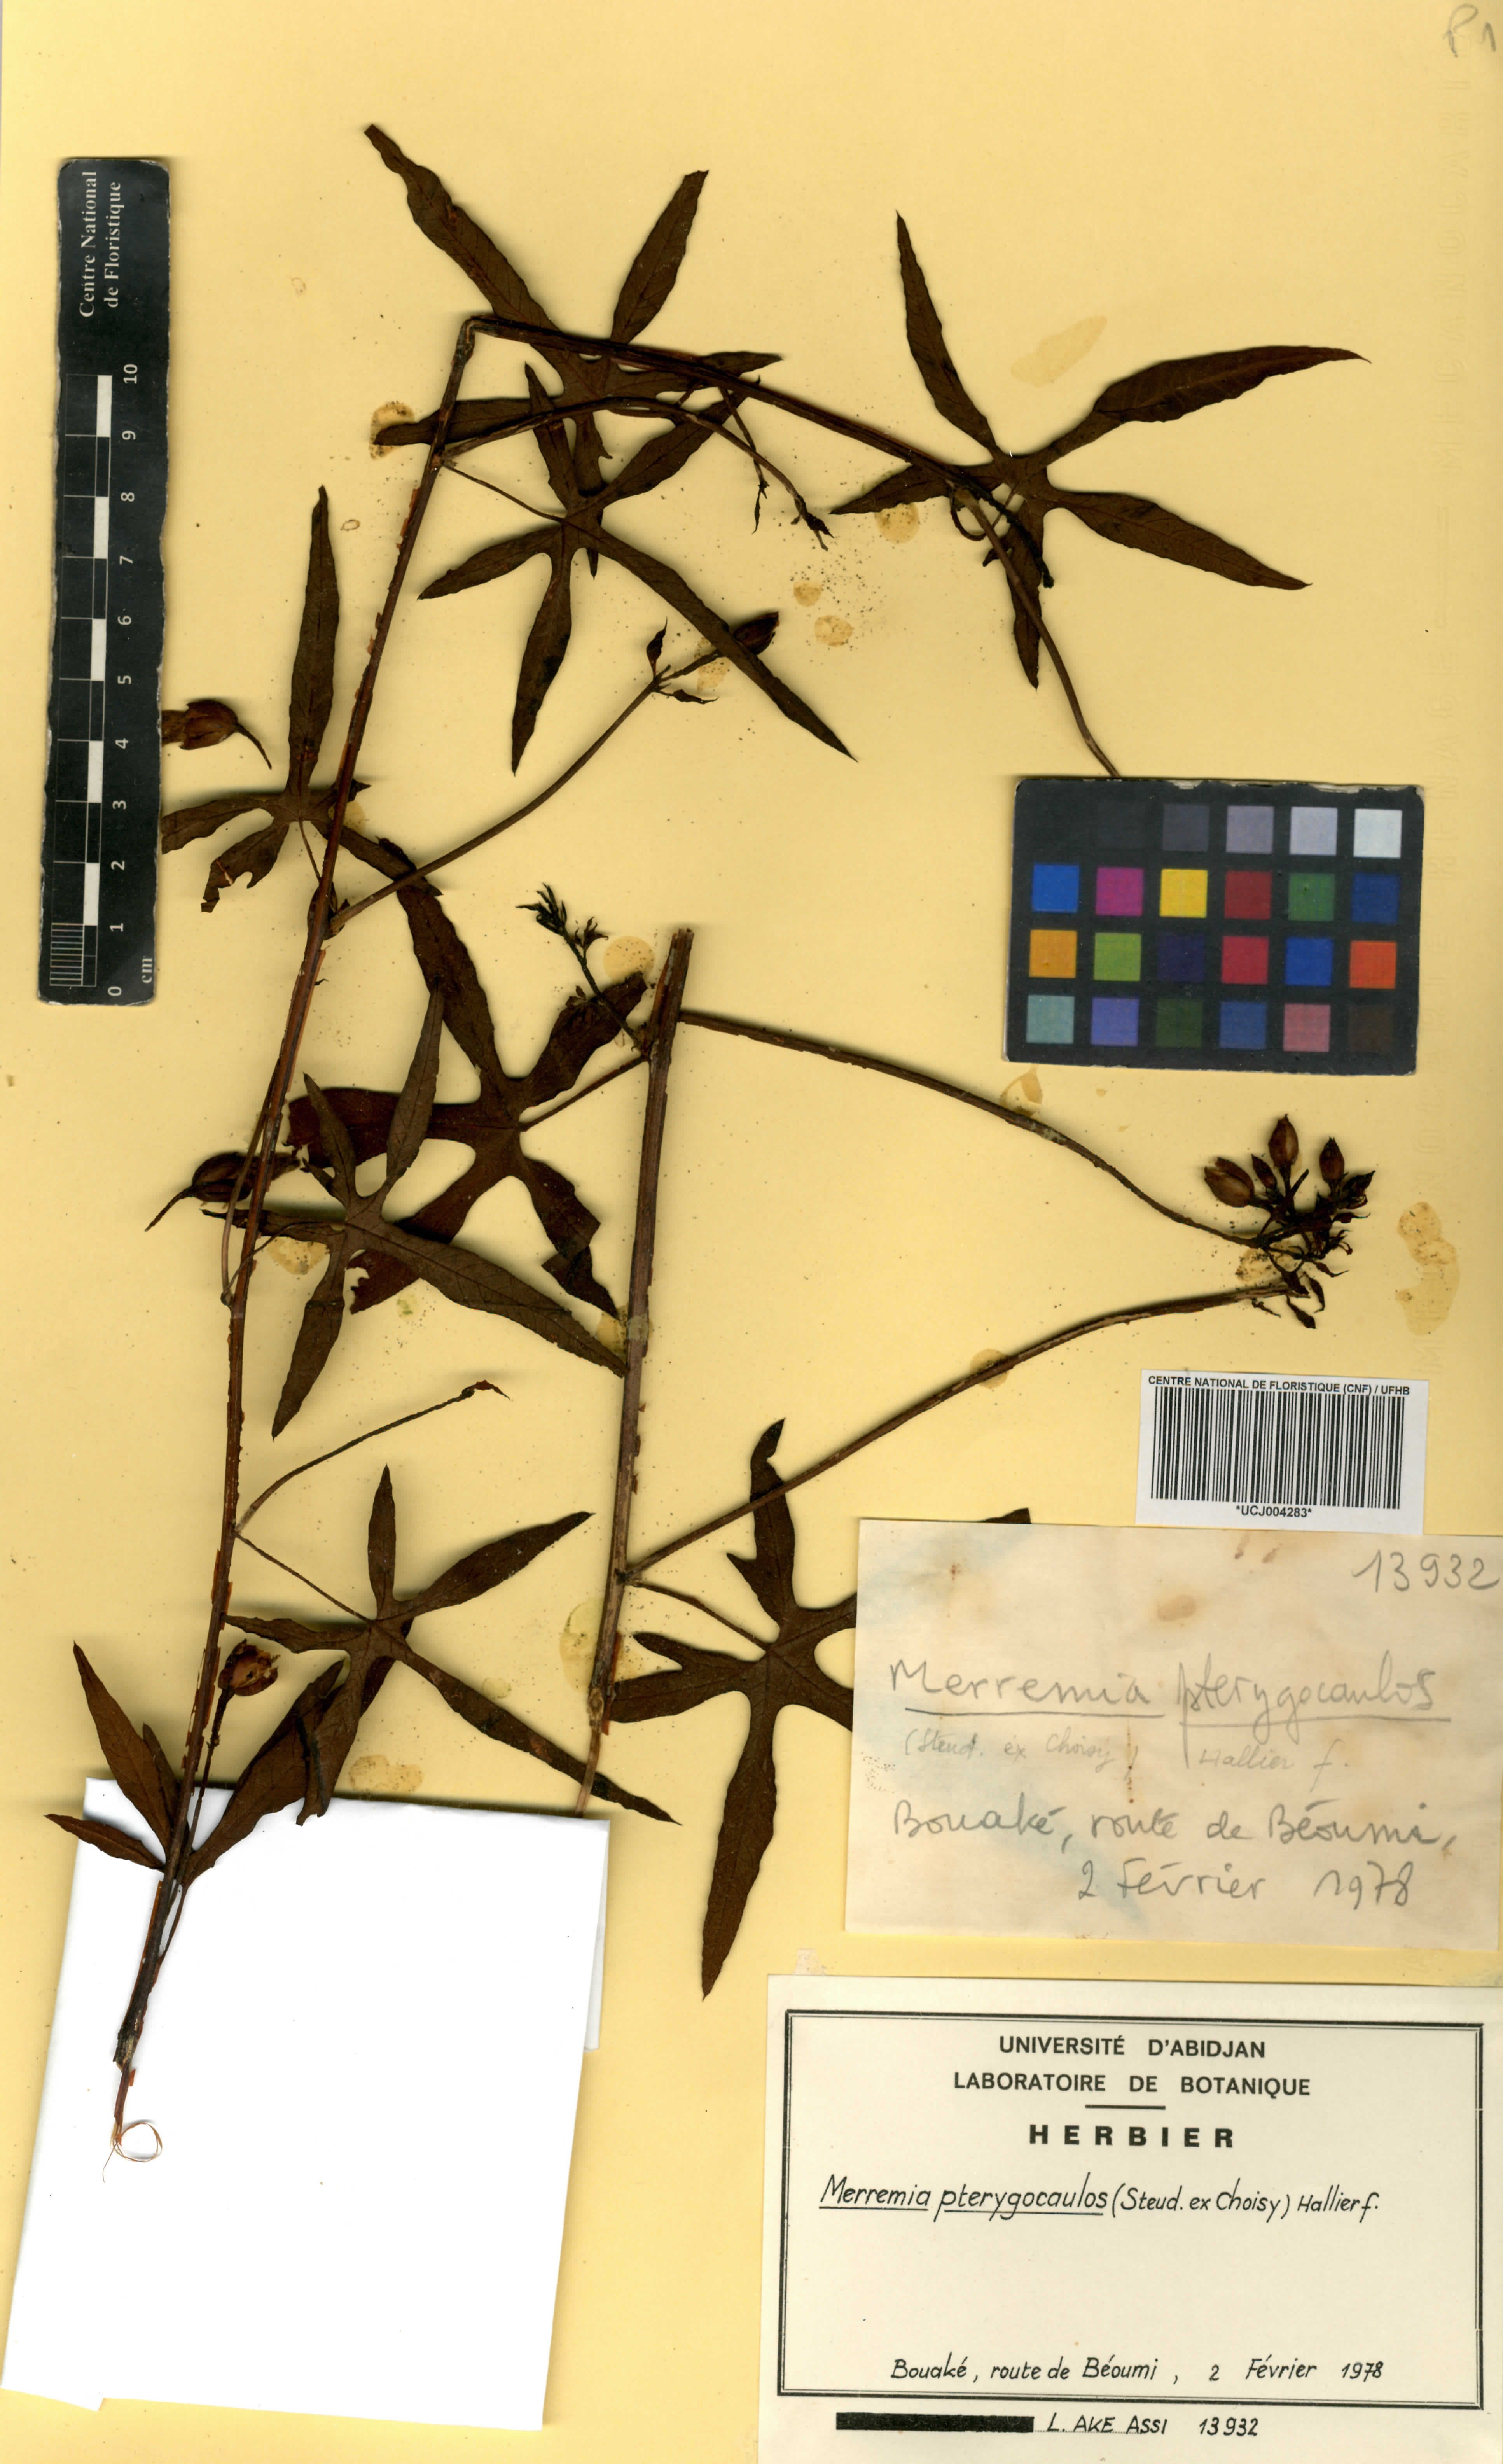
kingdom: Plantae
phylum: Tracheophyta
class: Magnoliopsida
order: Solanales
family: Convolvulaceae
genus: Merremia
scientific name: Merremia pterygocaulos
